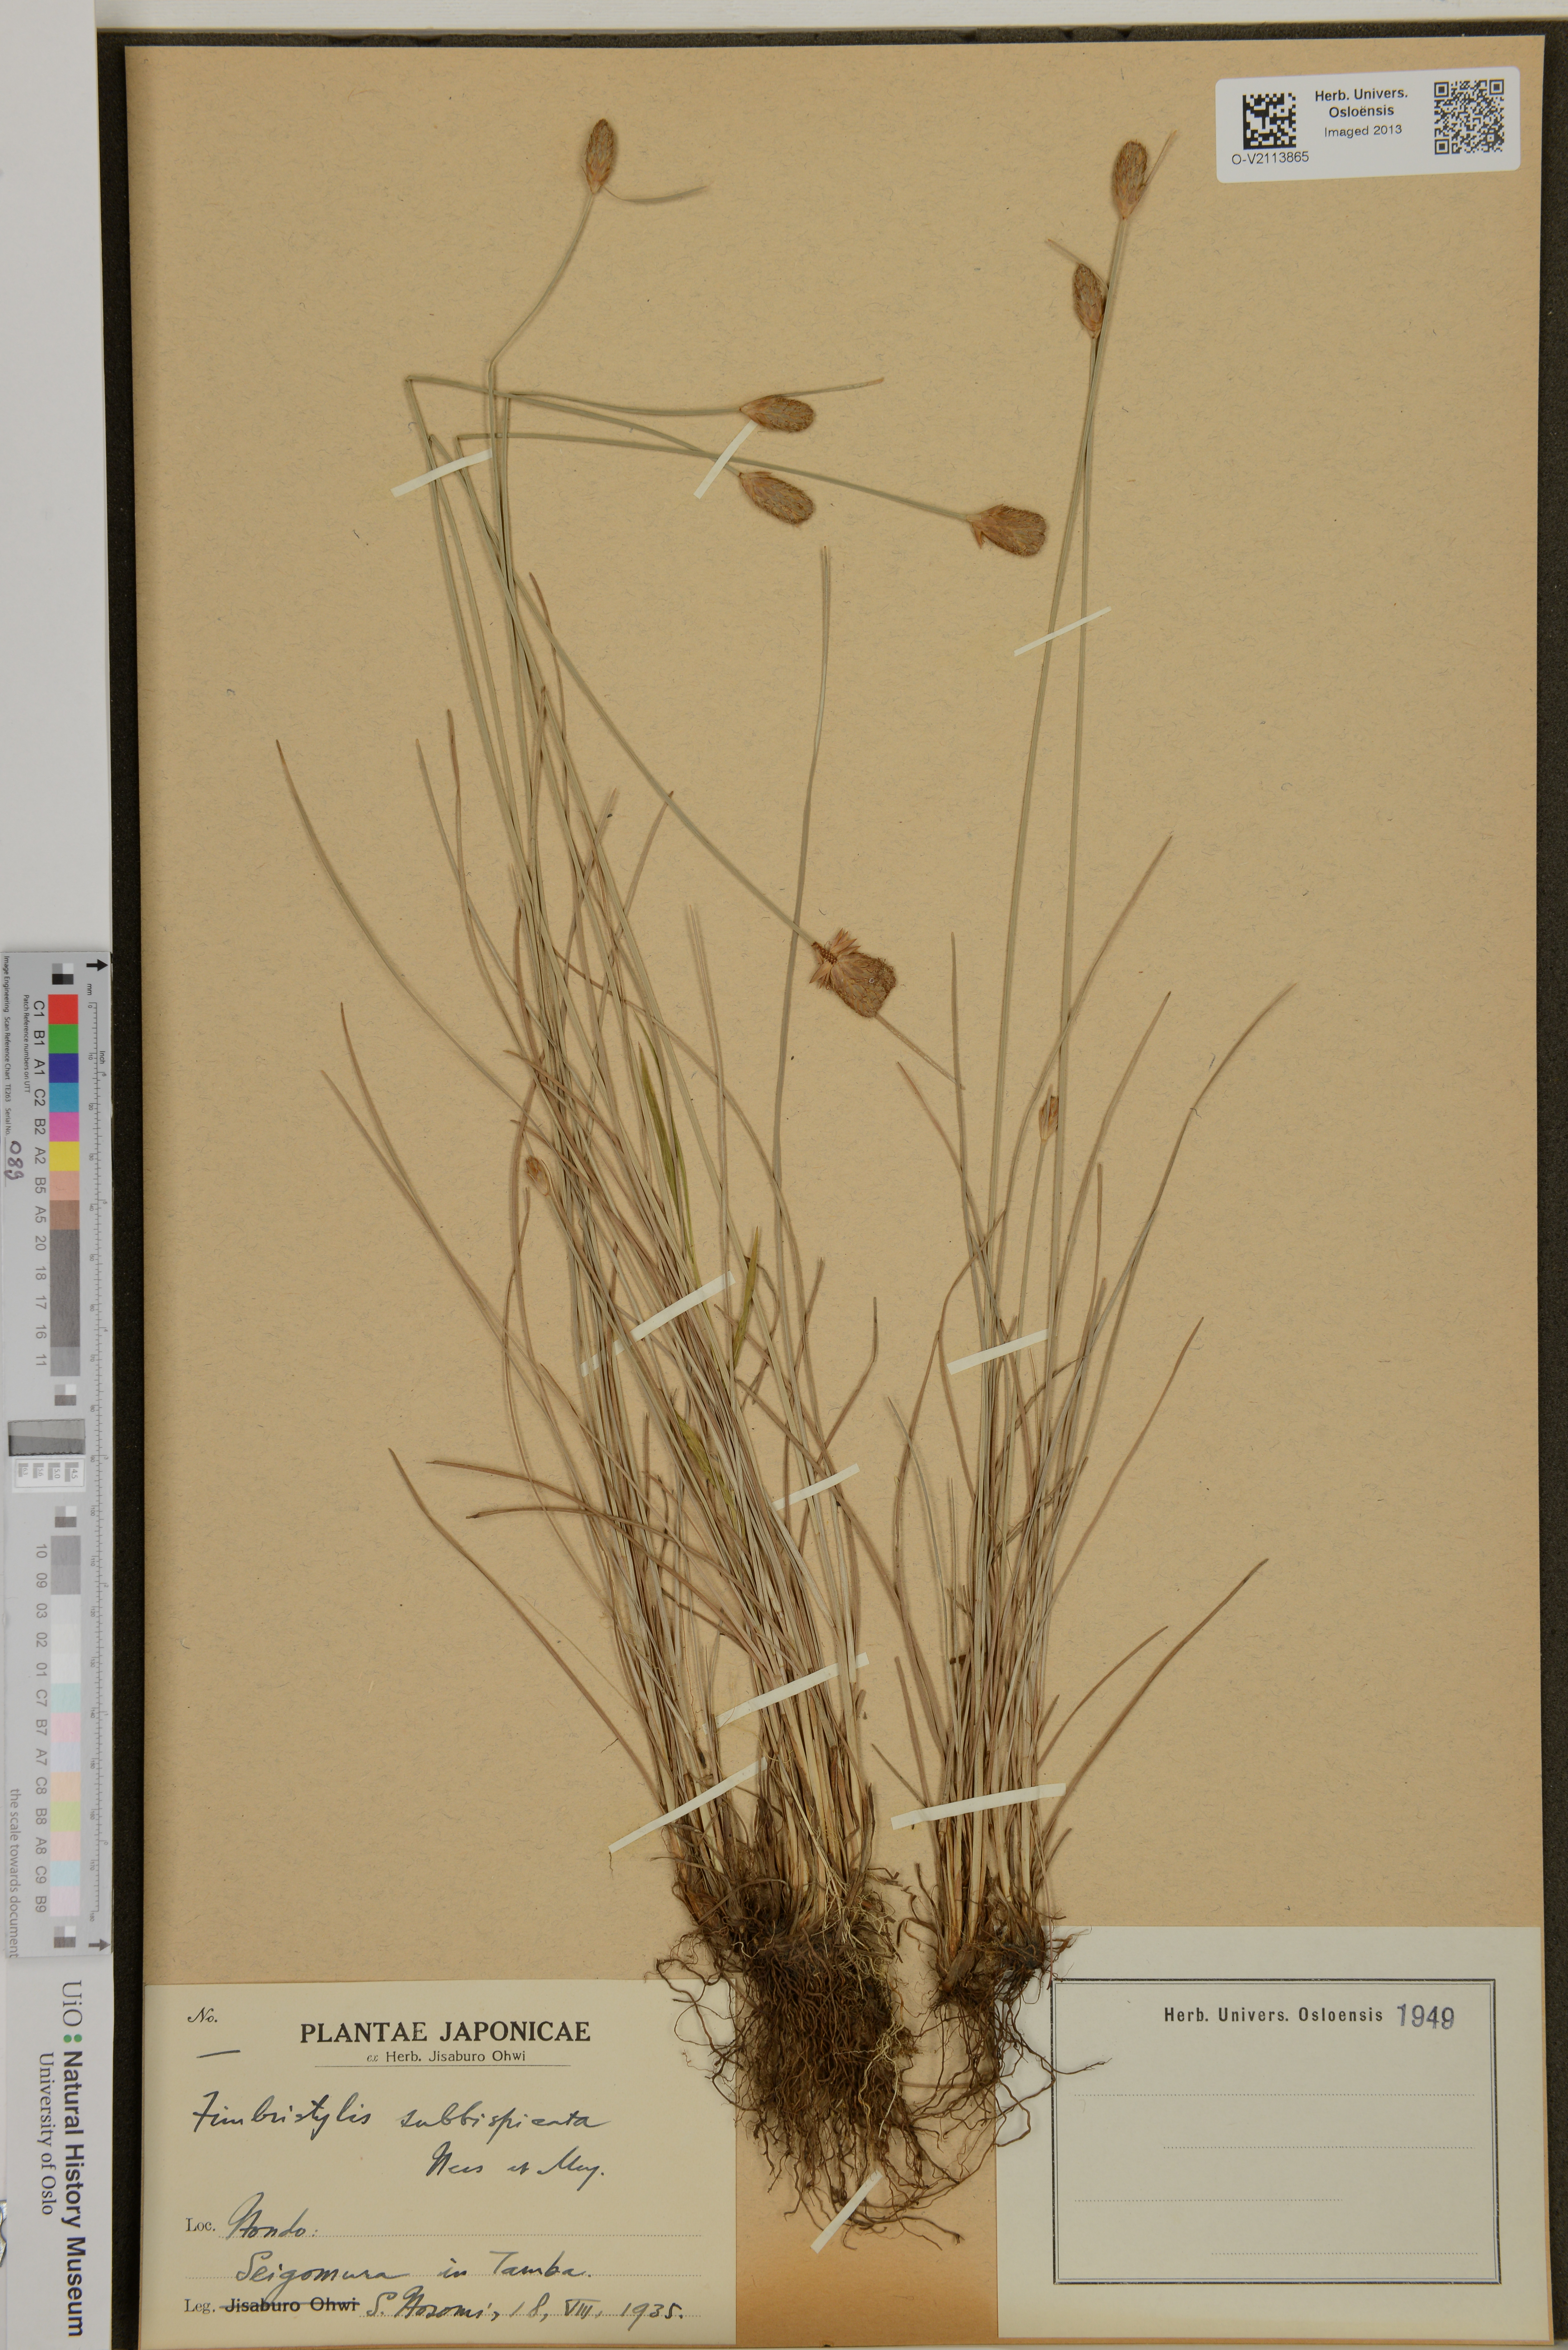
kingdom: Plantae
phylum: Tracheophyta
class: Liliopsida
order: Poales
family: Cyperaceae
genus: Fimbristylis
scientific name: Fimbristylis tristachya
